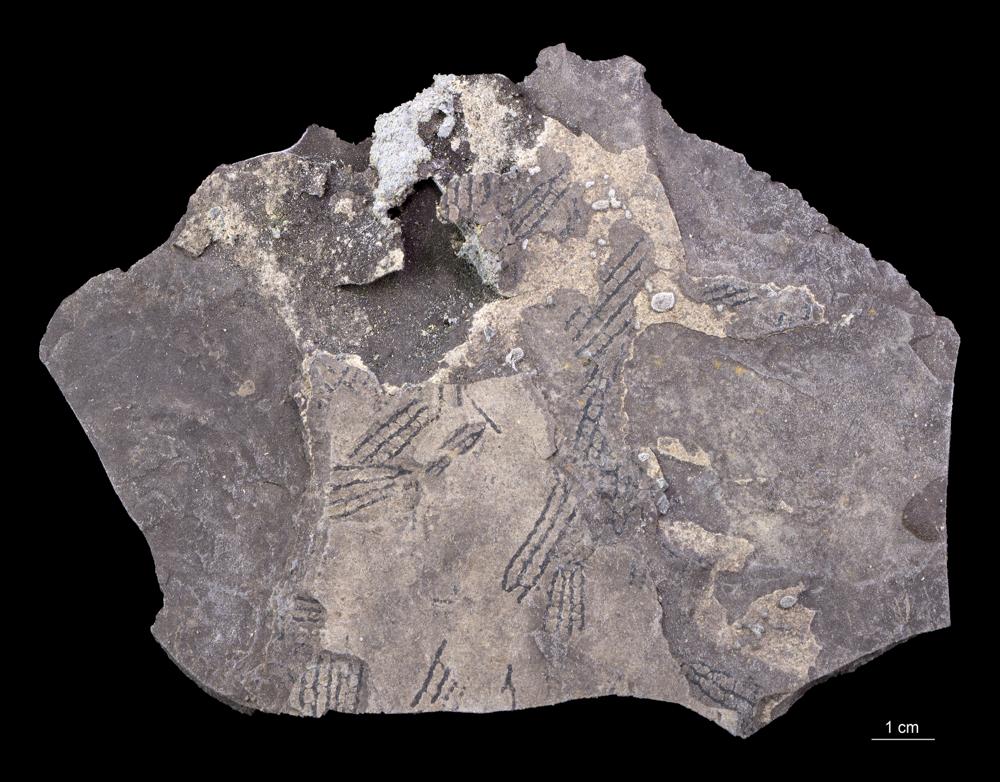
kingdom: Animalia
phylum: Hemichordata
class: Pterobranchia
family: Anisograptidae
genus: Rhabdinopora
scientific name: Rhabdinopora Gorgonia flabelliformis
